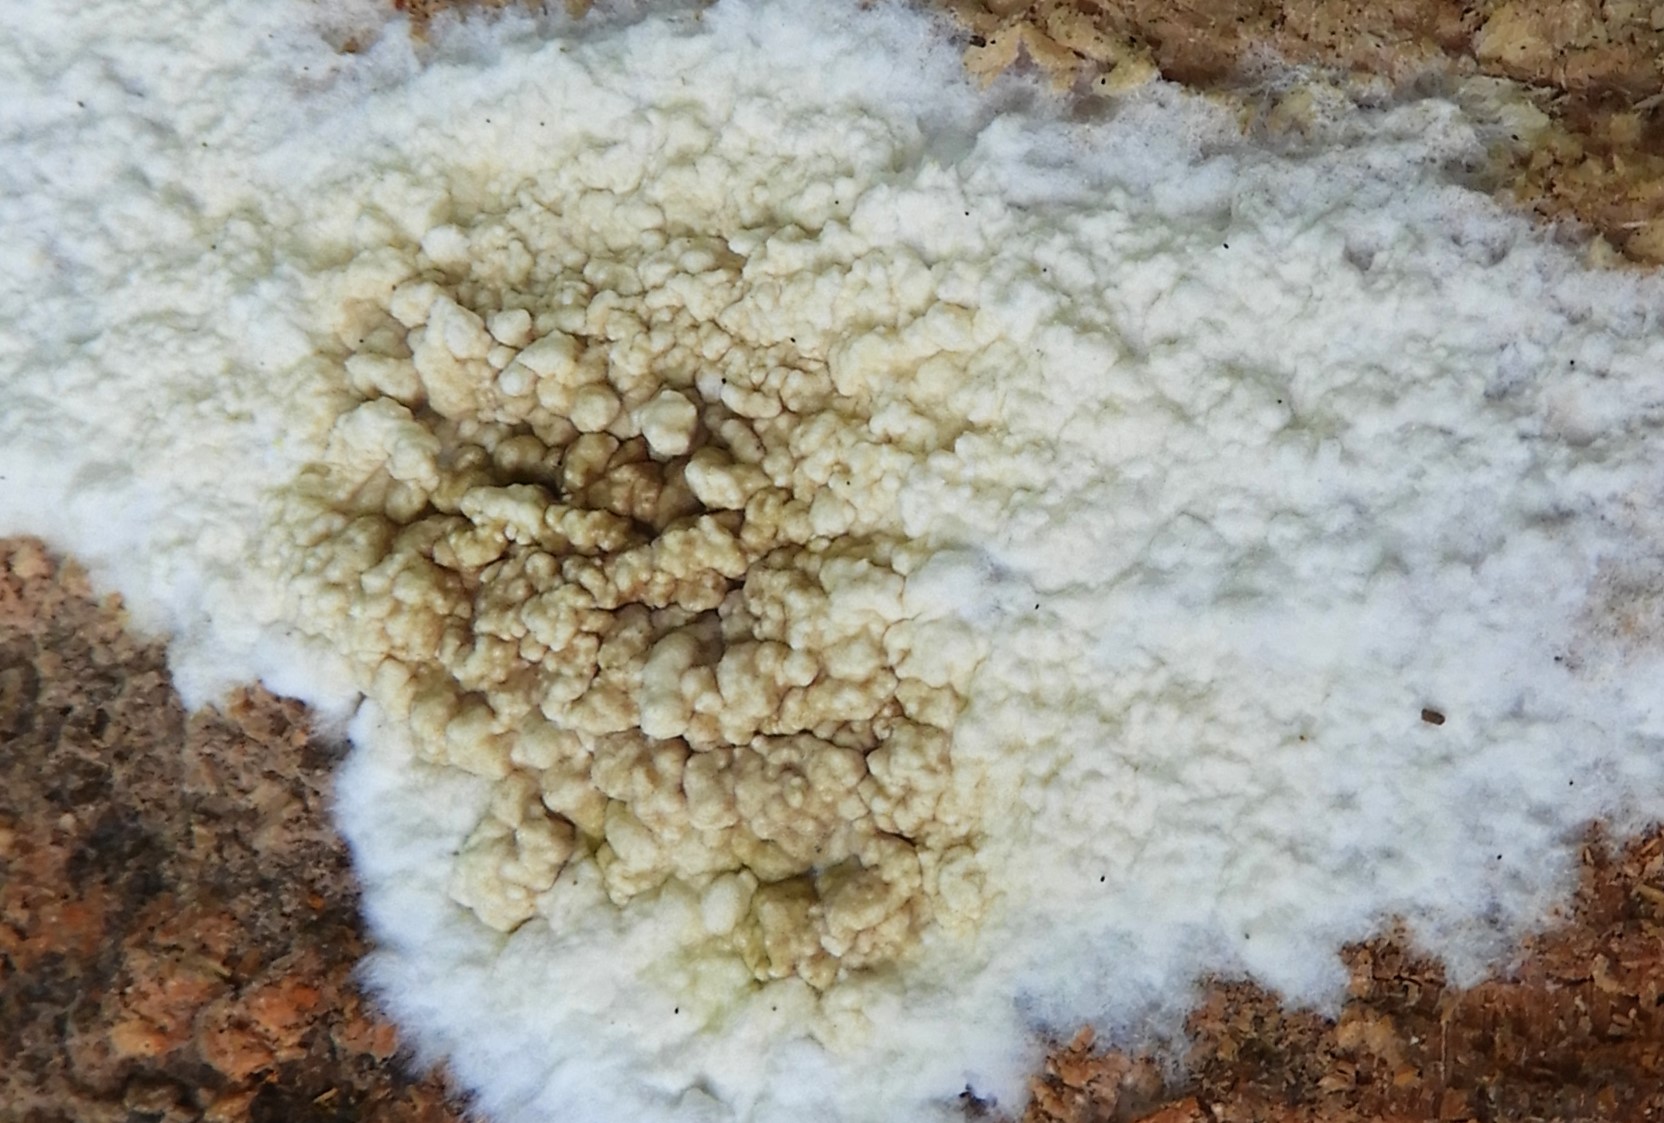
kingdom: Fungi
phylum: Basidiomycota
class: Agaricomycetes
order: Boletales
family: Coniophoraceae
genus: Coniophora
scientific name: Coniophora puteana
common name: gul tømmersvamp
